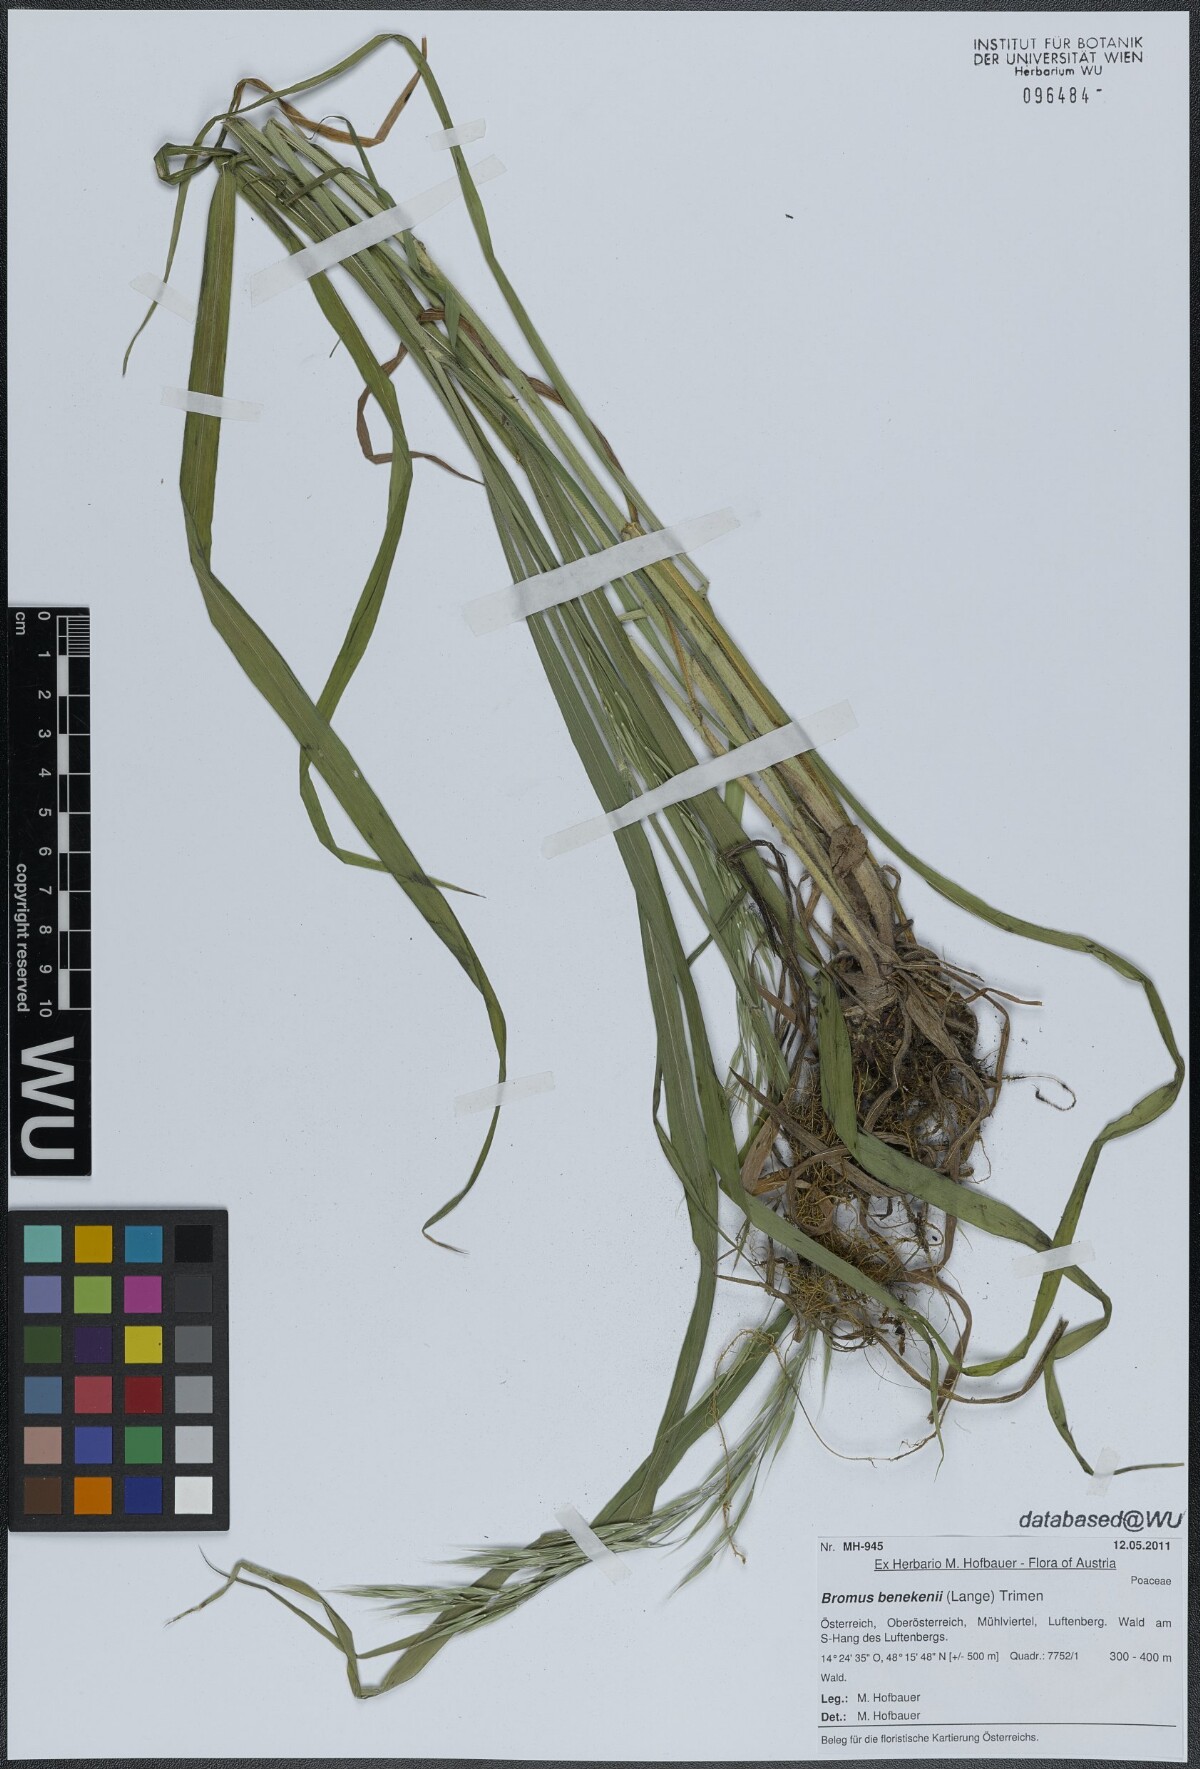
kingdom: Plantae
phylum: Tracheophyta
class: Liliopsida
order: Poales
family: Poaceae
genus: Bromus
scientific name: Bromus benekenii
